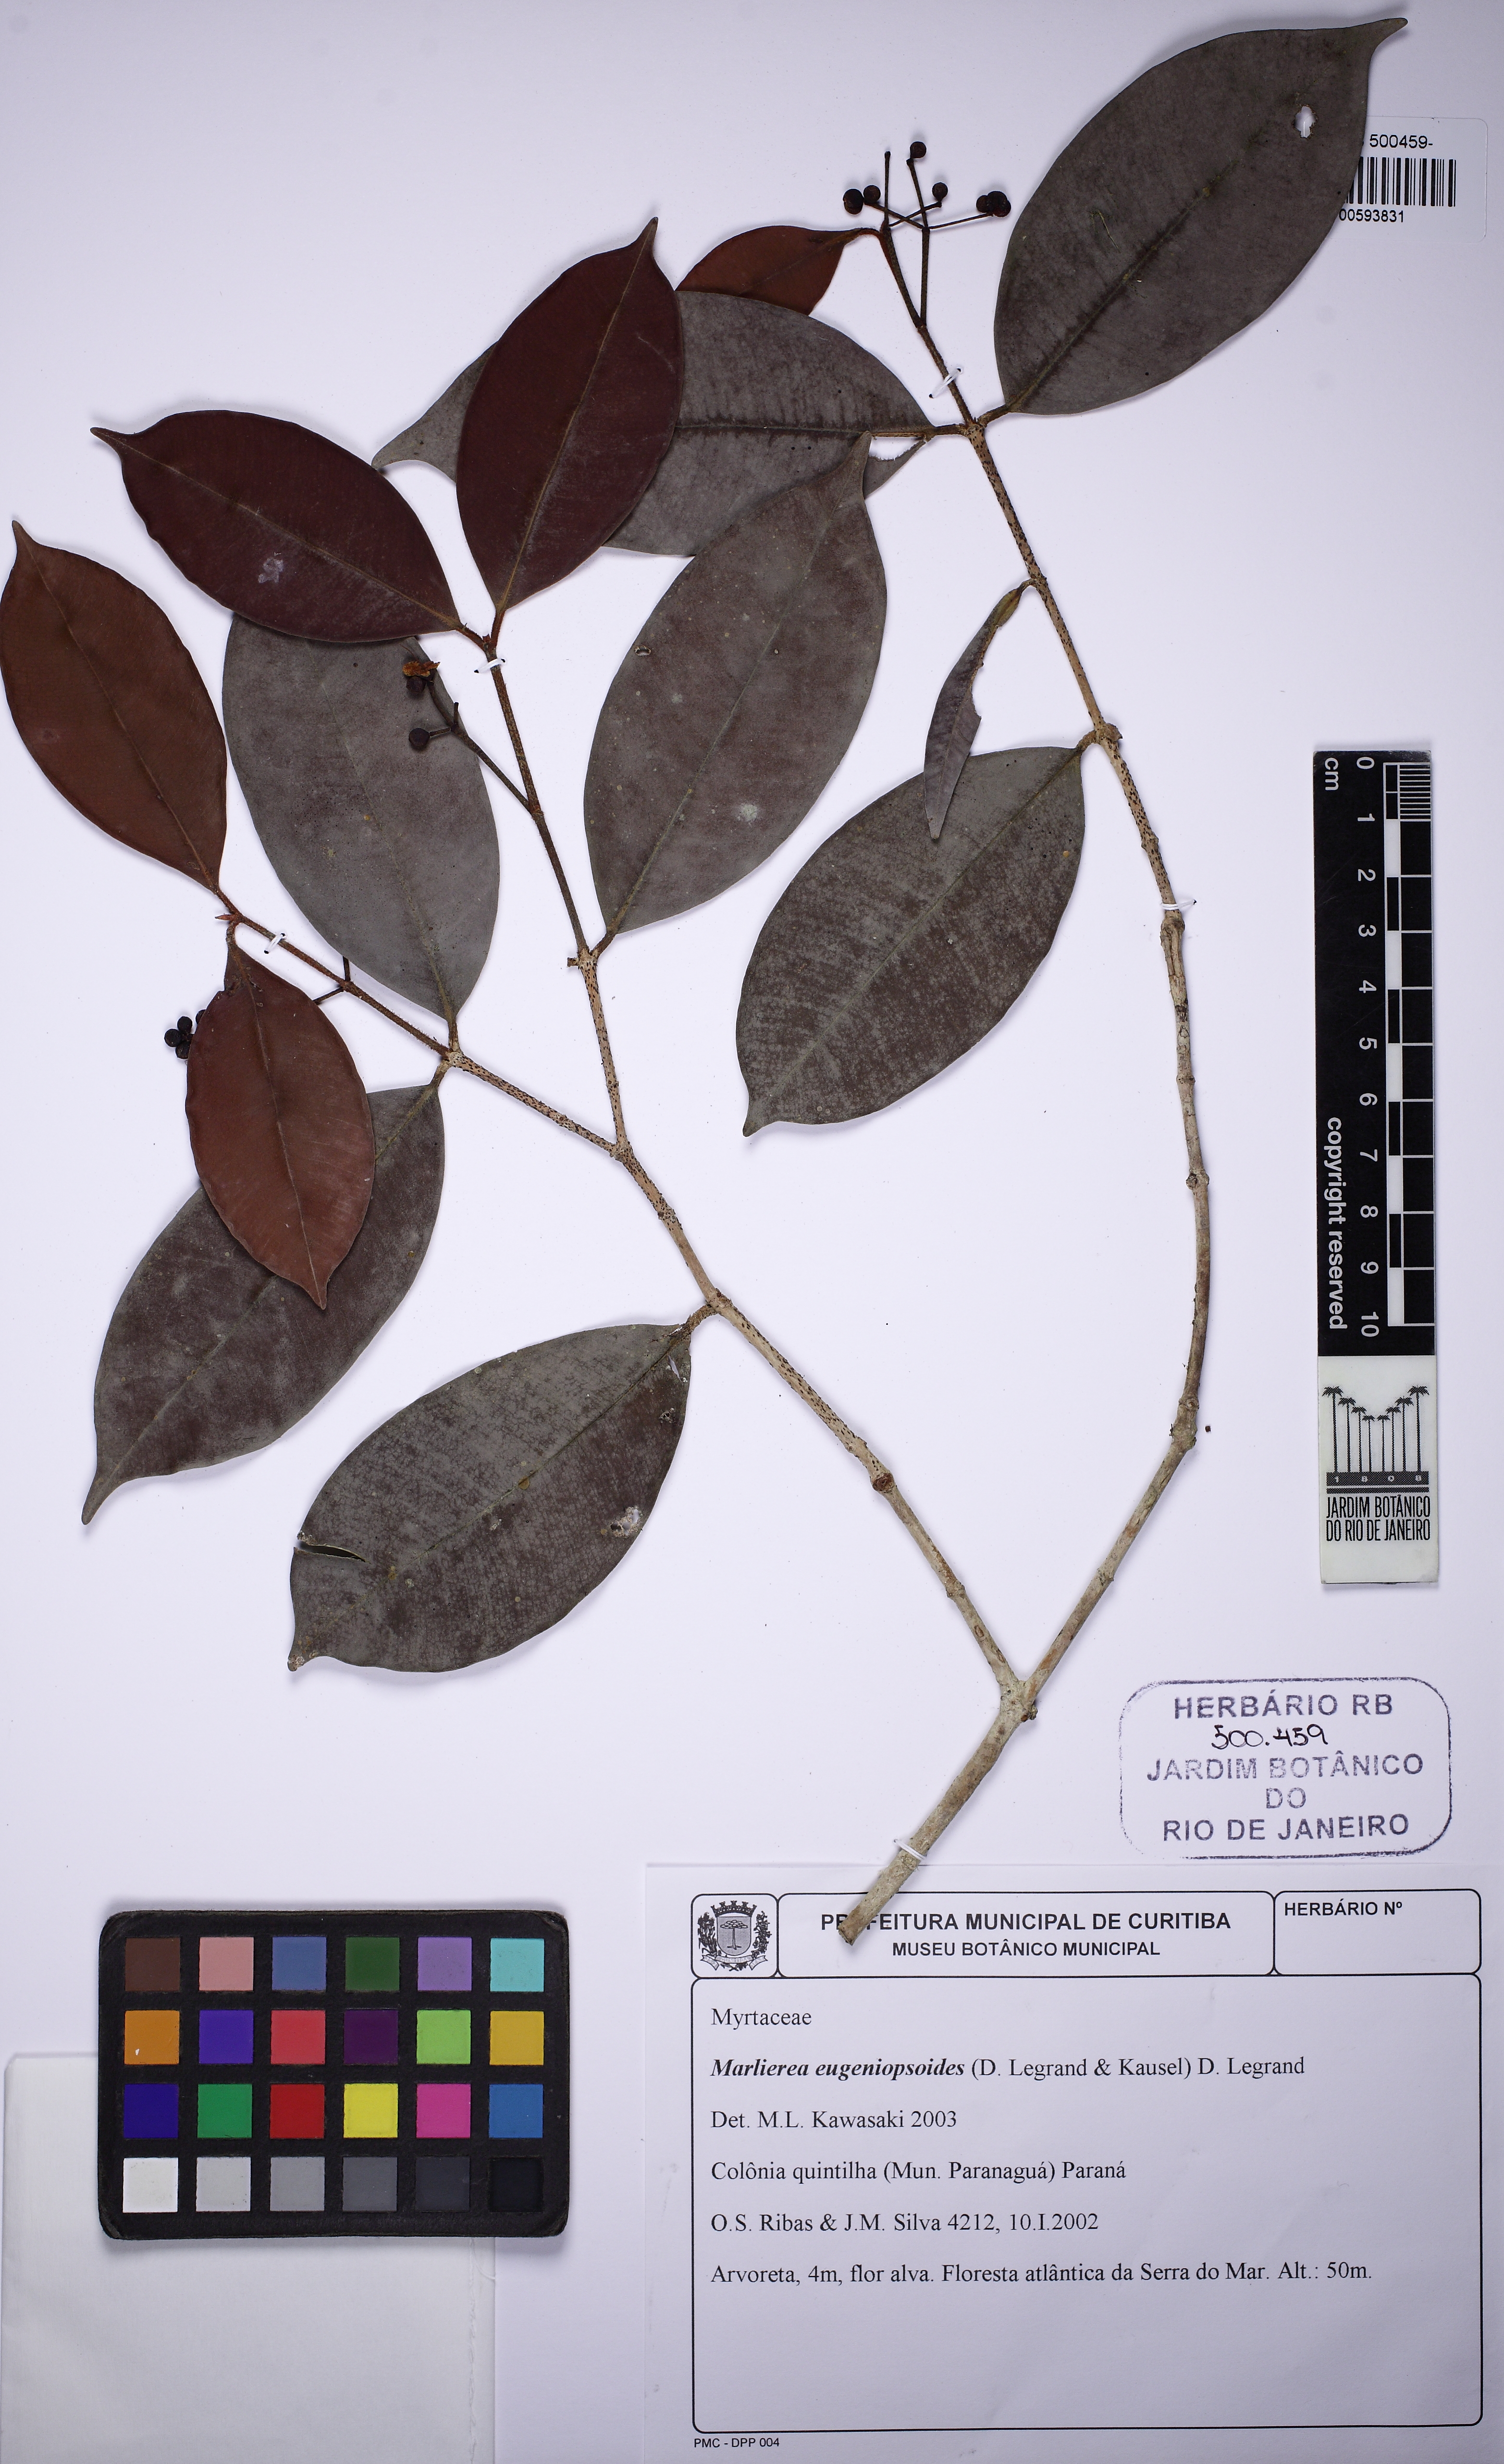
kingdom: Plantae
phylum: Tracheophyta
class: Magnoliopsida
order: Myrtales
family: Myrtaceae
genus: Myrcia
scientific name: Myrcia eugeniopsoides
